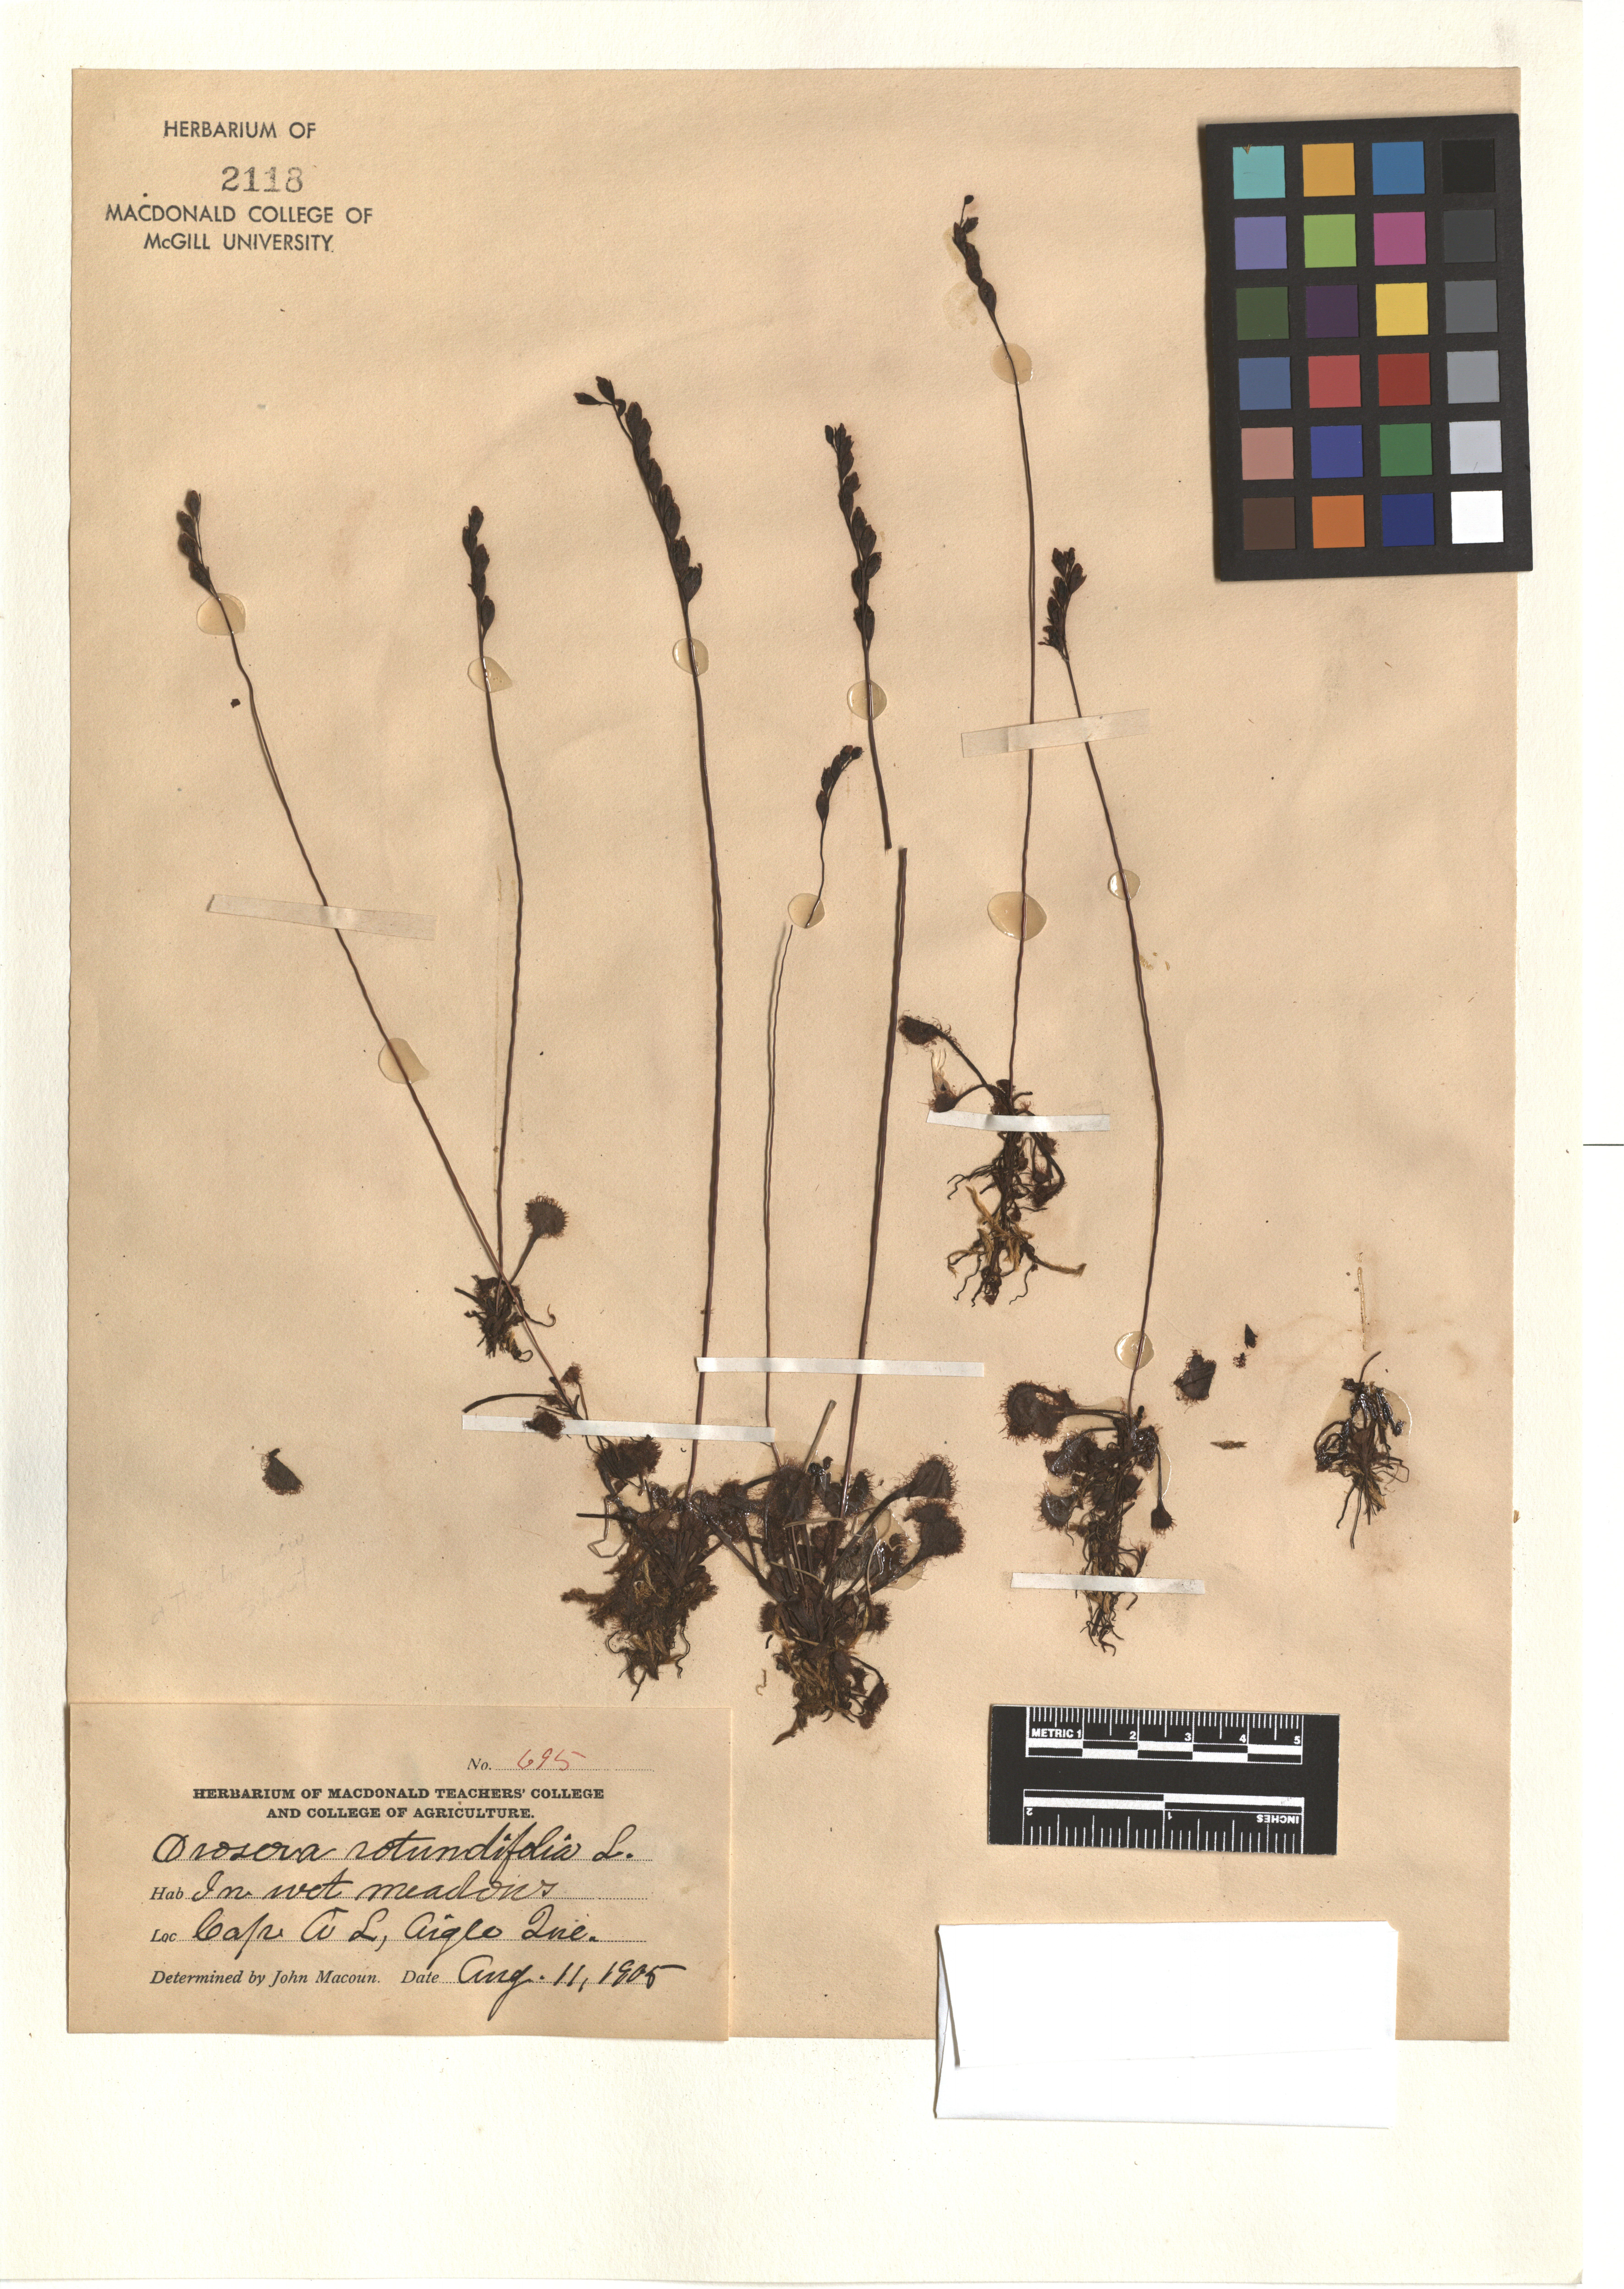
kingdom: Plantae
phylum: Tracheophyta
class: Magnoliopsida
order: Caryophyllales
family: Droseraceae
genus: Drosera
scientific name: Drosera rotundifolia
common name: Round-leaved sundew
